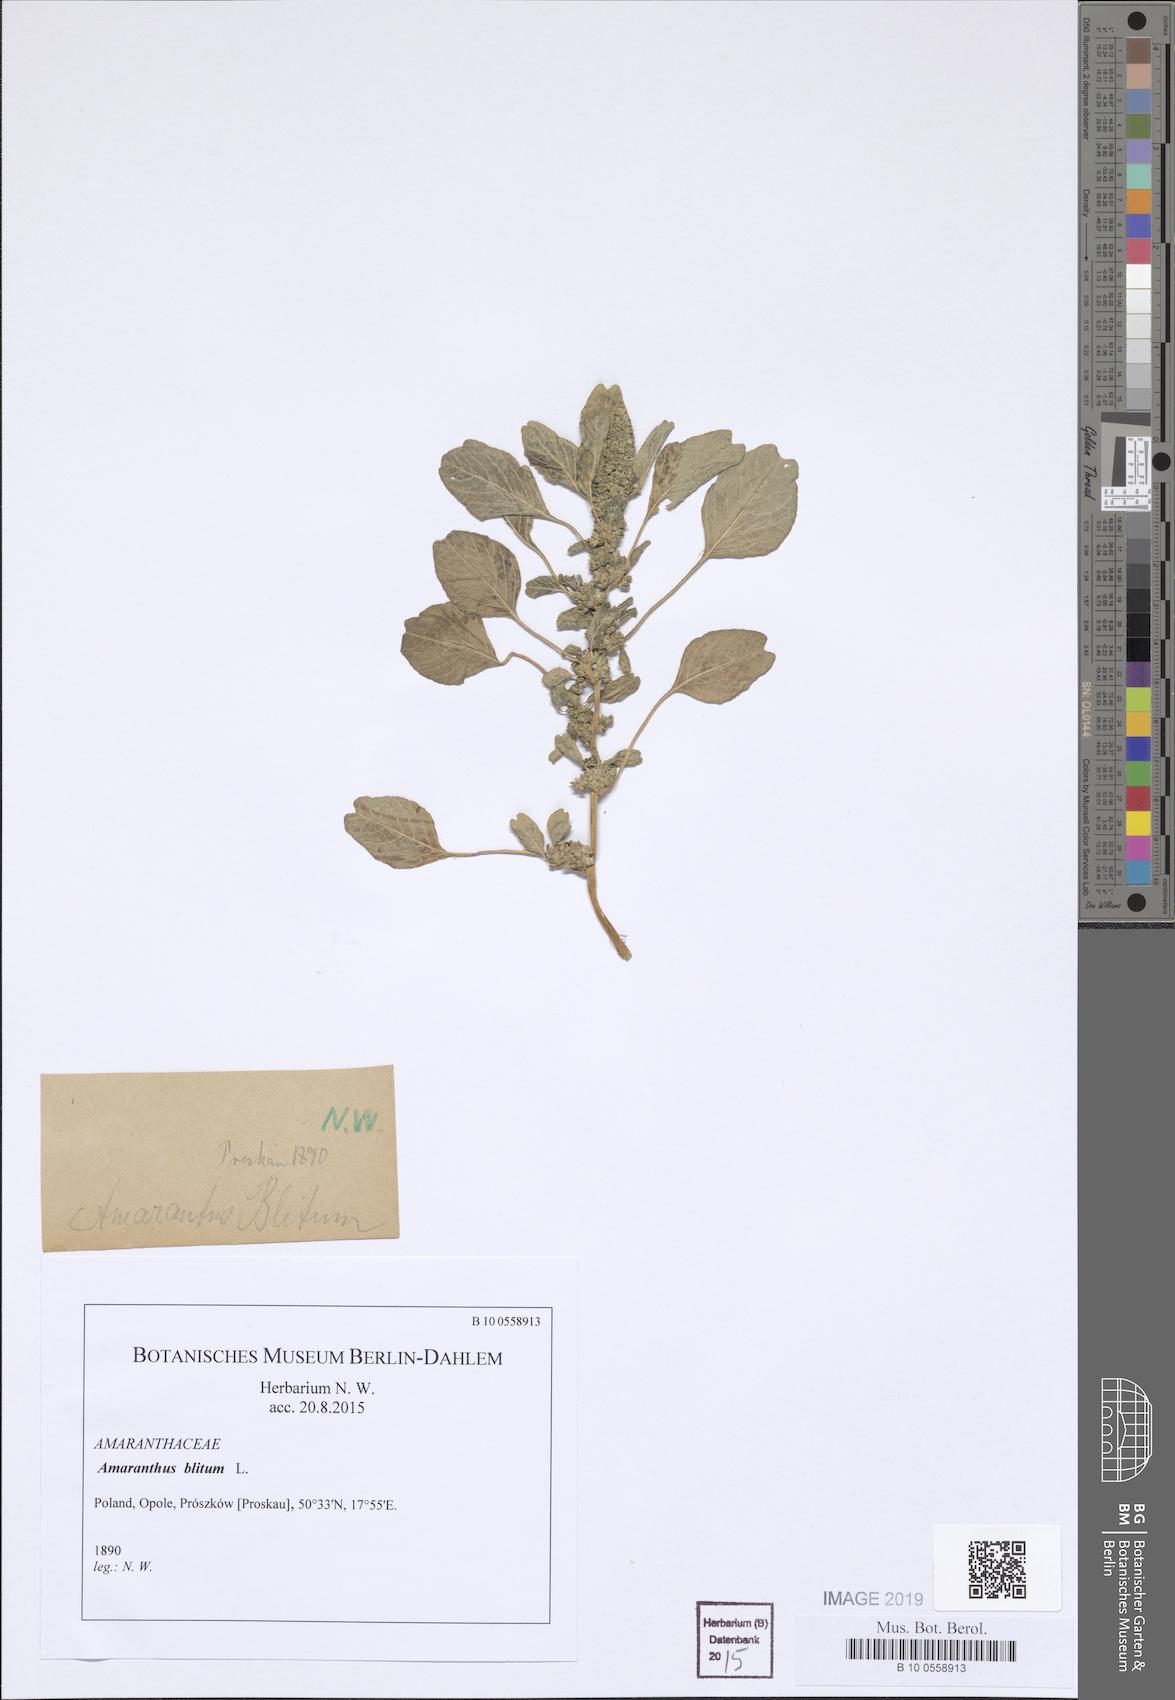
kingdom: Plantae
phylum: Tracheophyta
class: Magnoliopsida
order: Caryophyllales
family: Amaranthaceae
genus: Amaranthus
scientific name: Amaranthus blitum
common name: Purple amaranth
